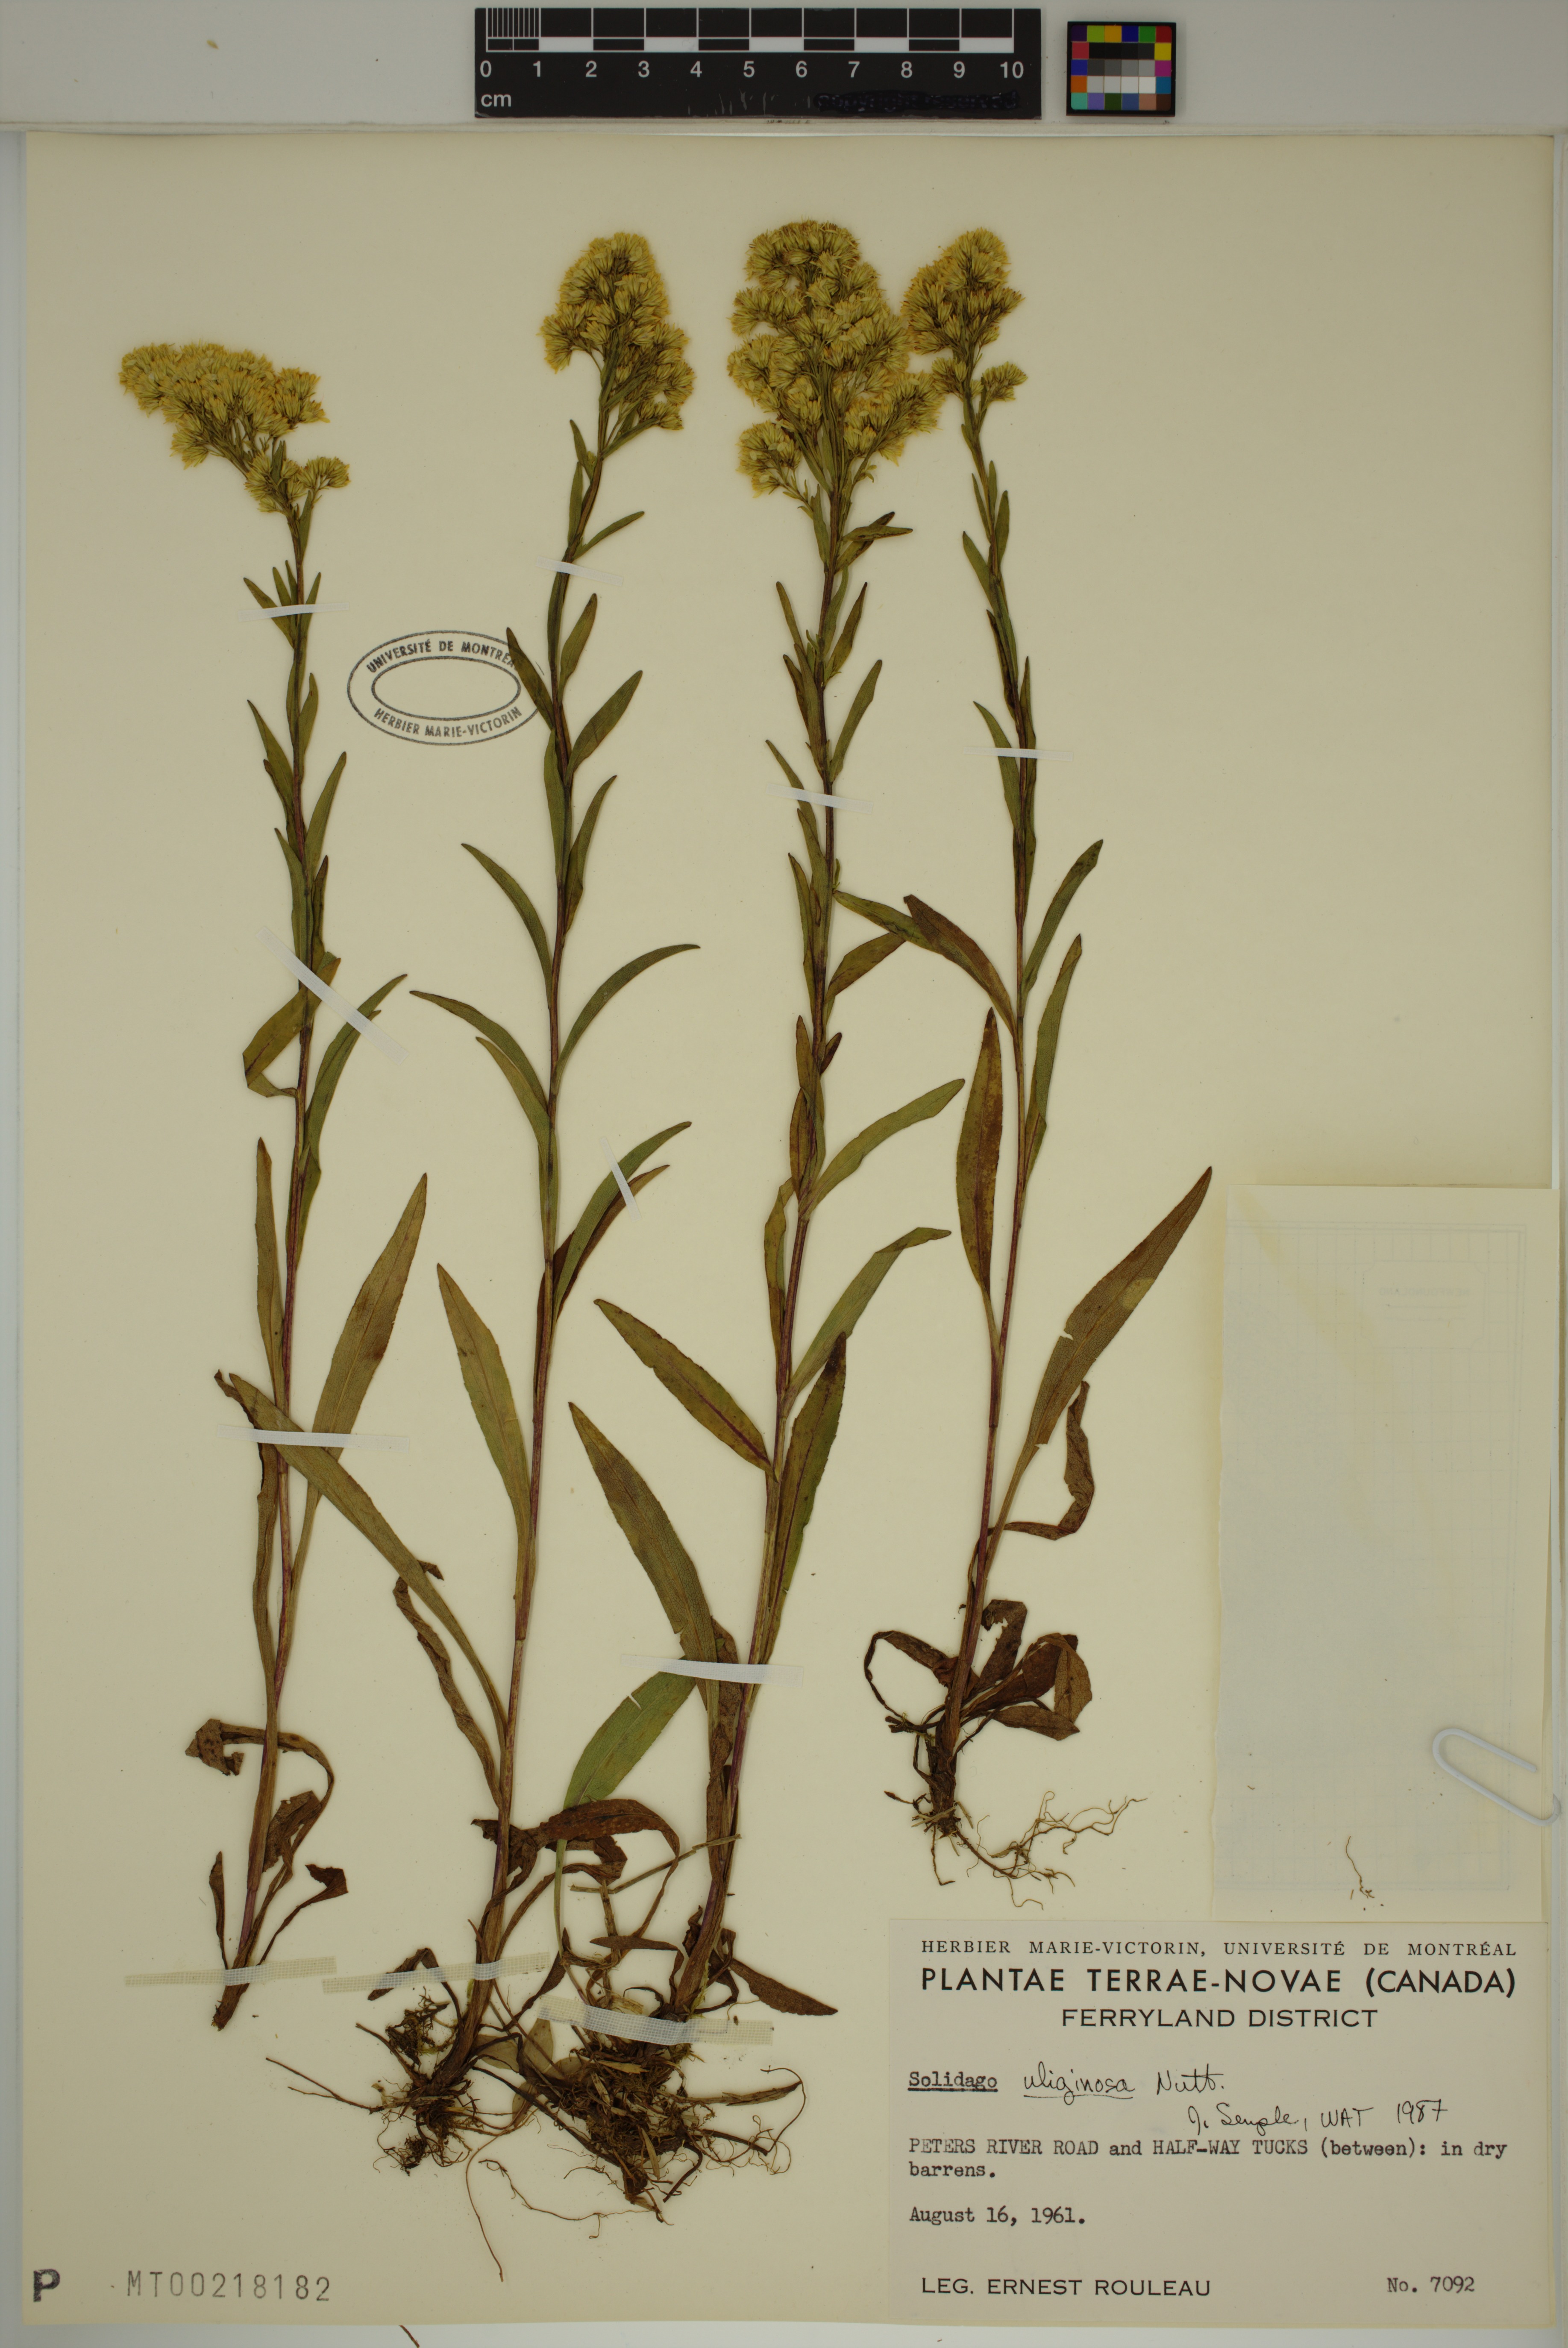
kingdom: Plantae
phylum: Tracheophyta
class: Magnoliopsida
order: Asterales
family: Asteraceae
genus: Solidago
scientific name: Solidago uliginosa
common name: Bog goldenrod
